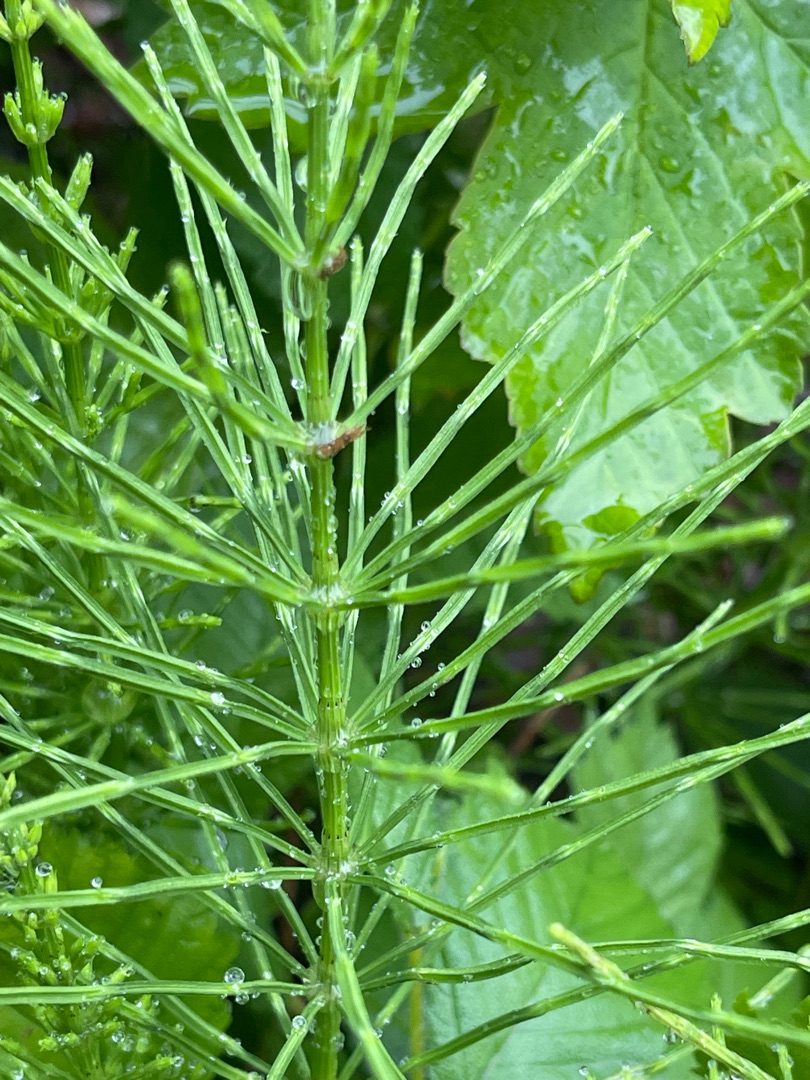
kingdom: Plantae
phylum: Tracheophyta
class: Polypodiopsida
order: Equisetales
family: Equisetaceae
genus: Equisetum
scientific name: Equisetum arvense
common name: Ager-padderok
